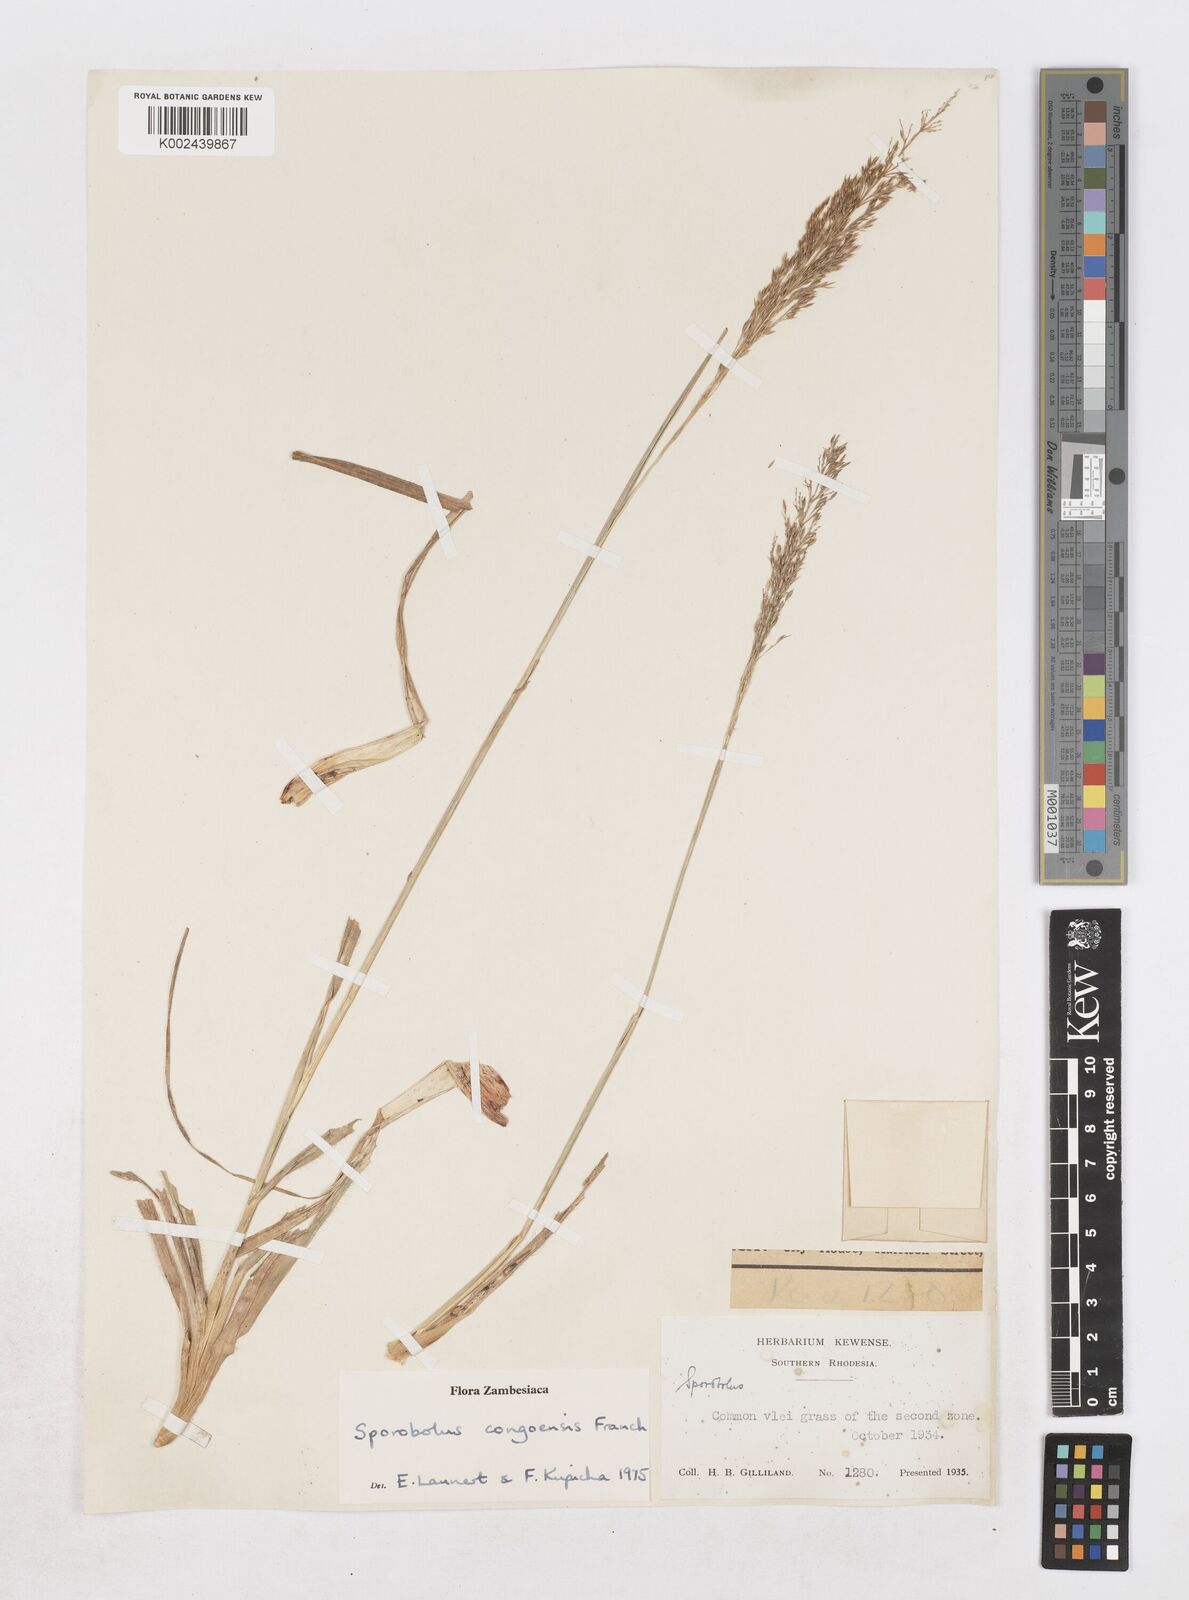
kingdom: Plantae
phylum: Tracheophyta
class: Liliopsida
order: Poales
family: Poaceae
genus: Sporobolus
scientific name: Sporobolus congoensis
